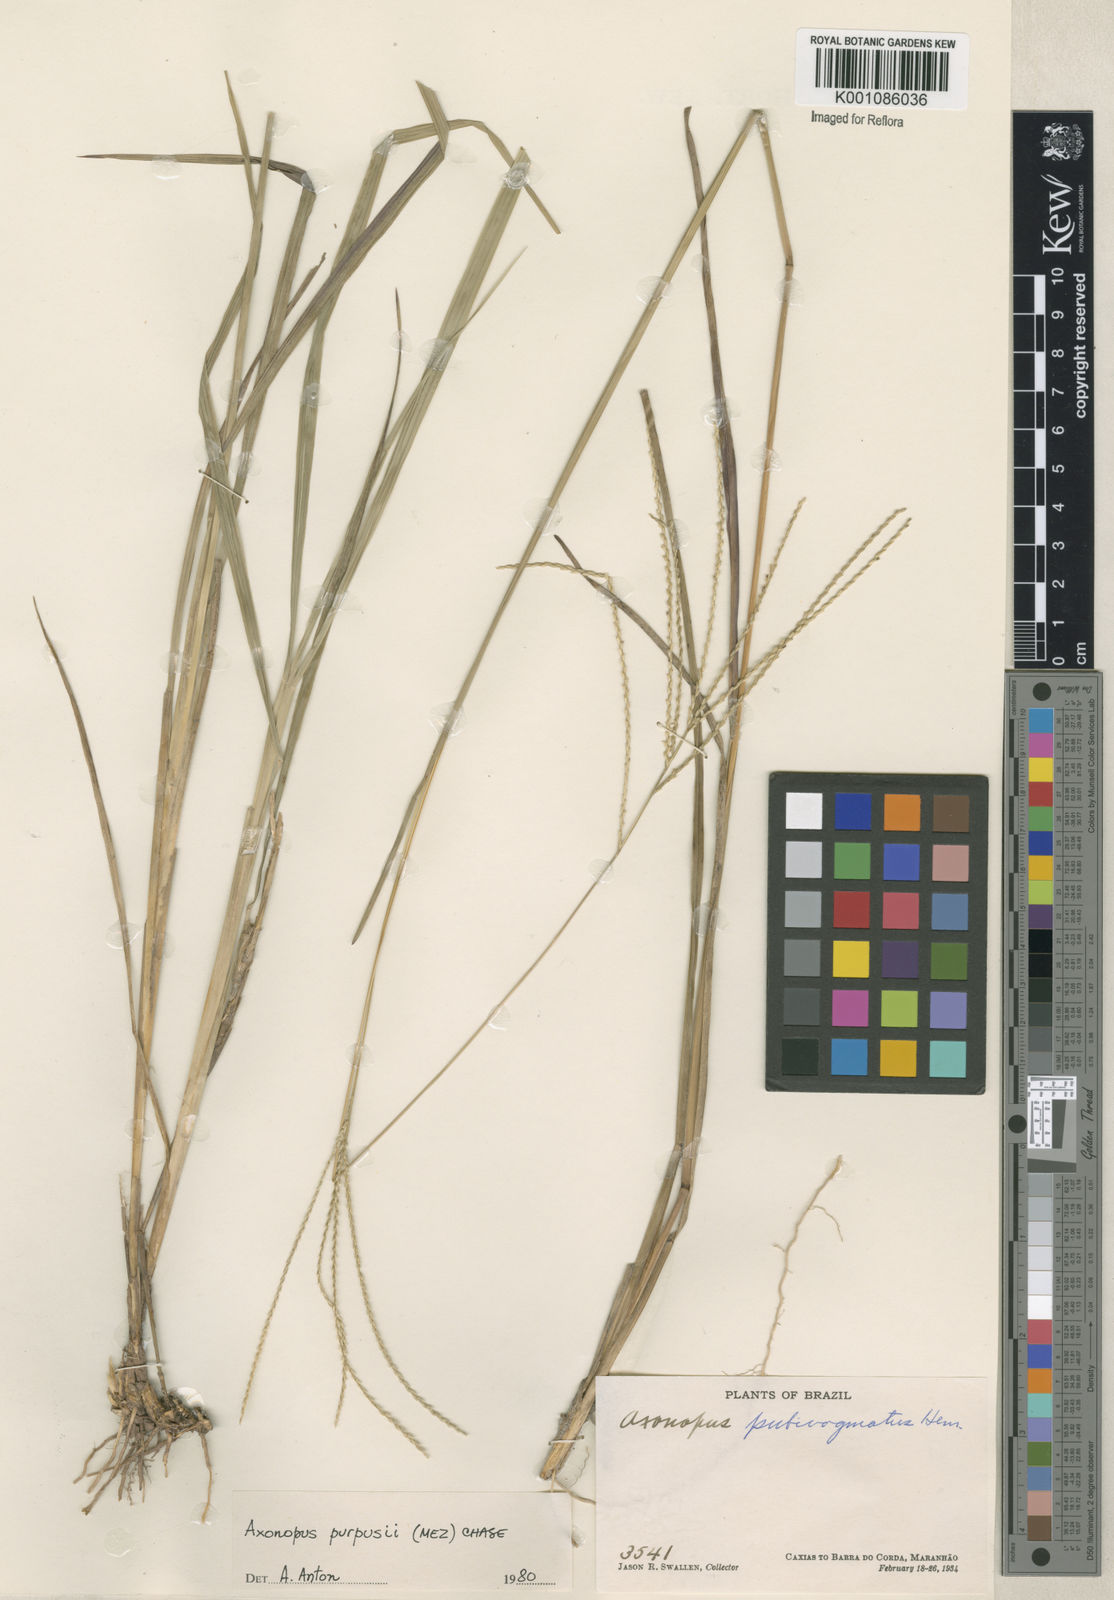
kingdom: Plantae
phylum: Tracheophyta
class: Liliopsida
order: Poales
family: Poaceae
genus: Axonopus
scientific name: Axonopus purpusii
